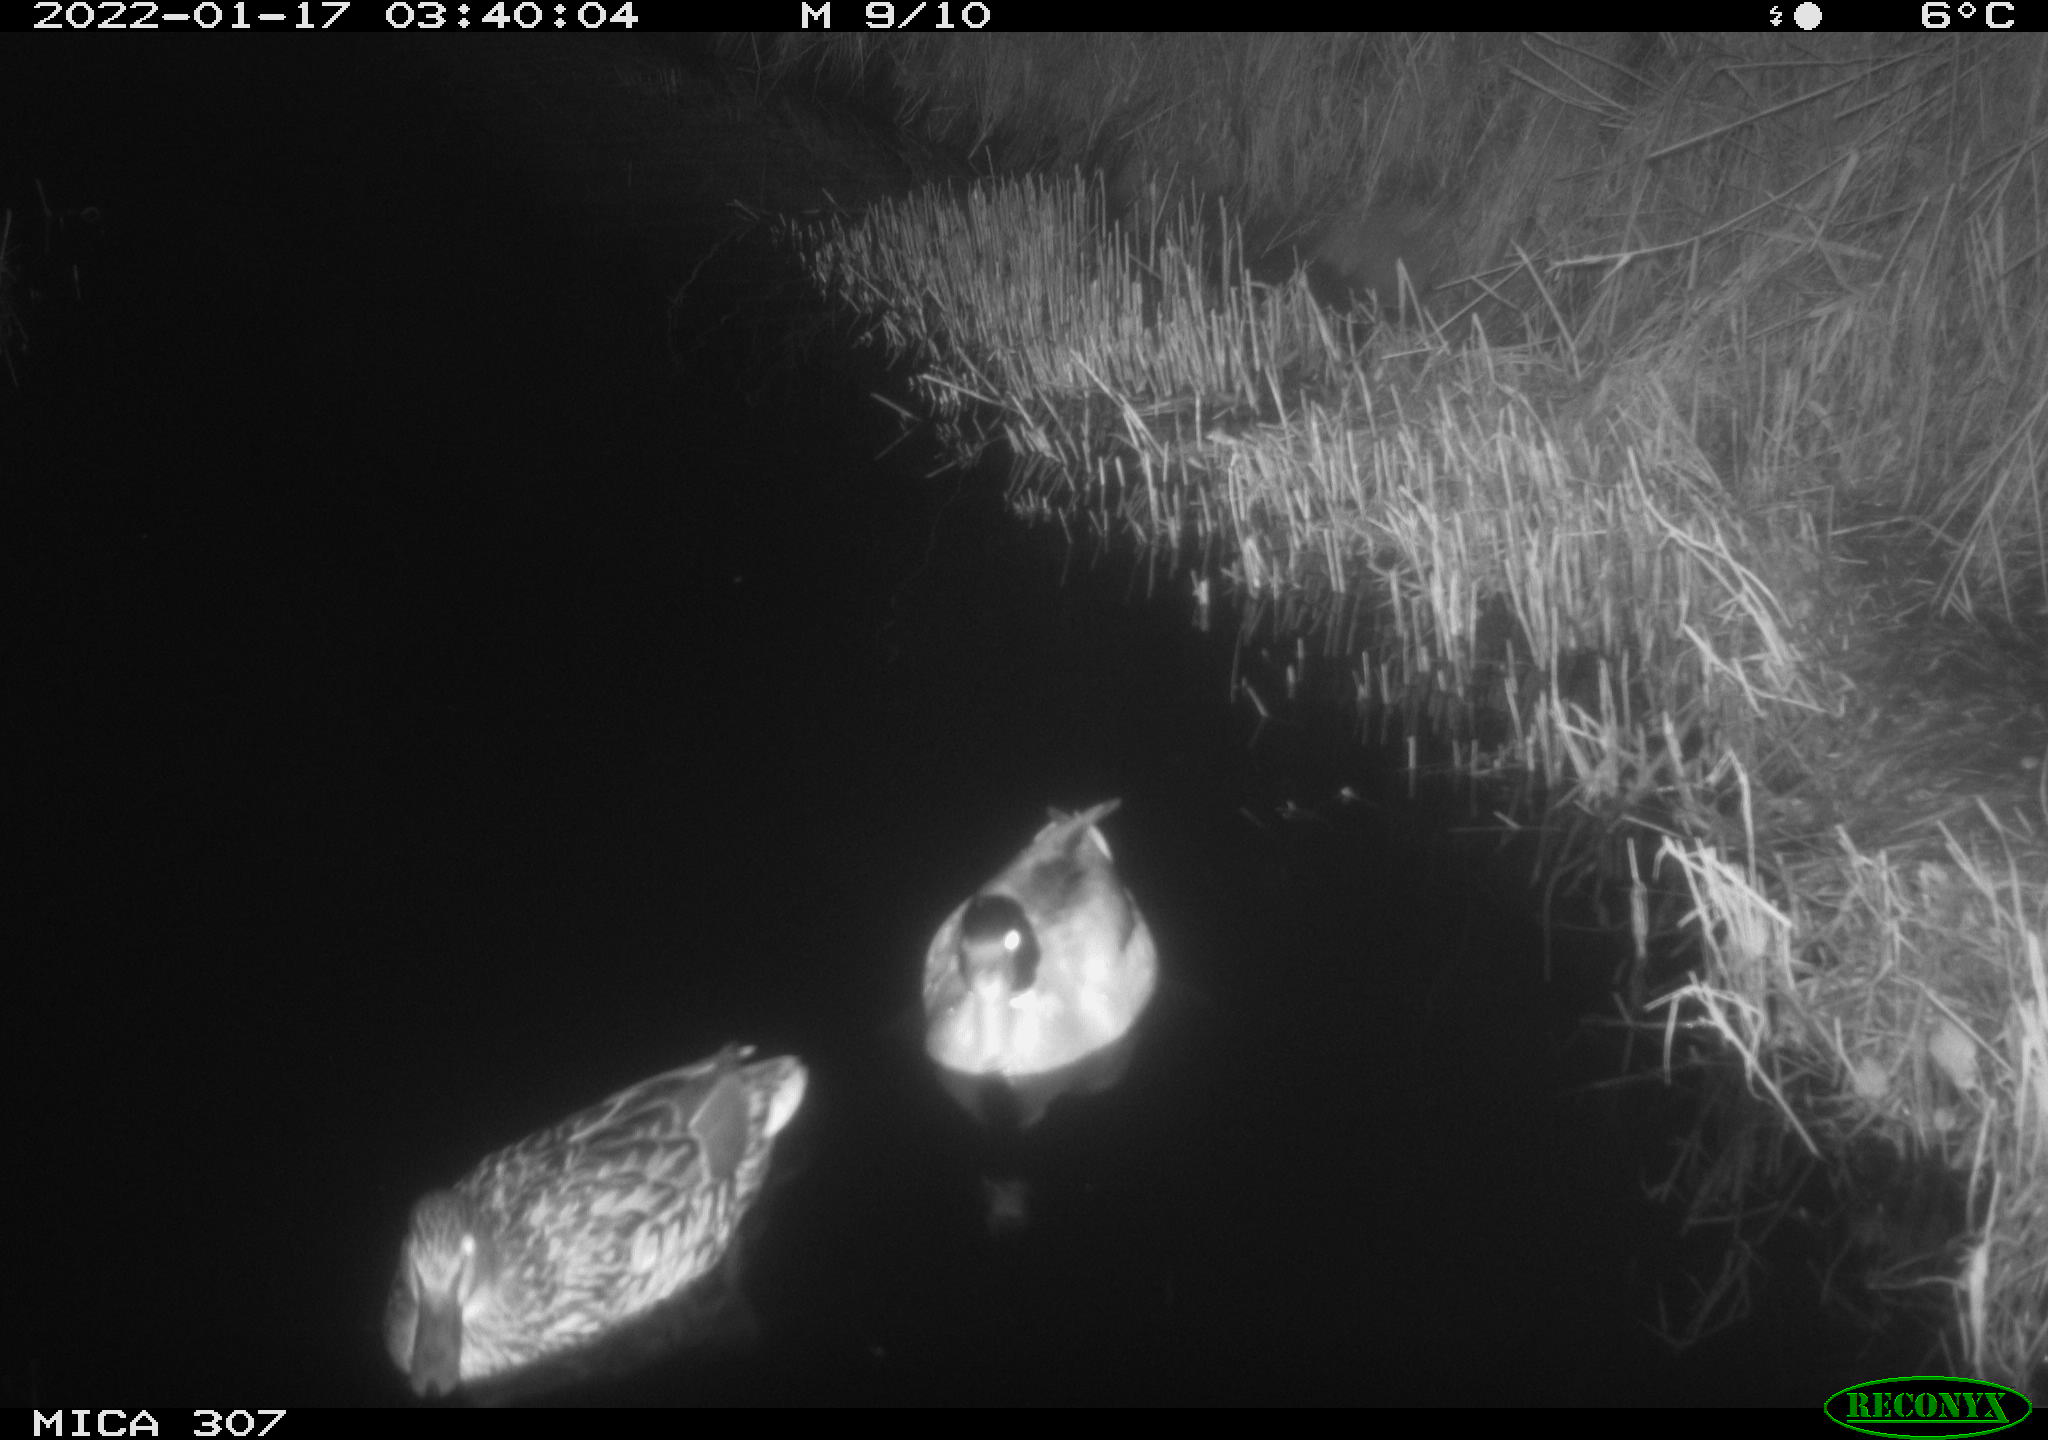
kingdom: Animalia
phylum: Chordata
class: Aves
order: Anseriformes
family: Anatidae
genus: Anas
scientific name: Anas
